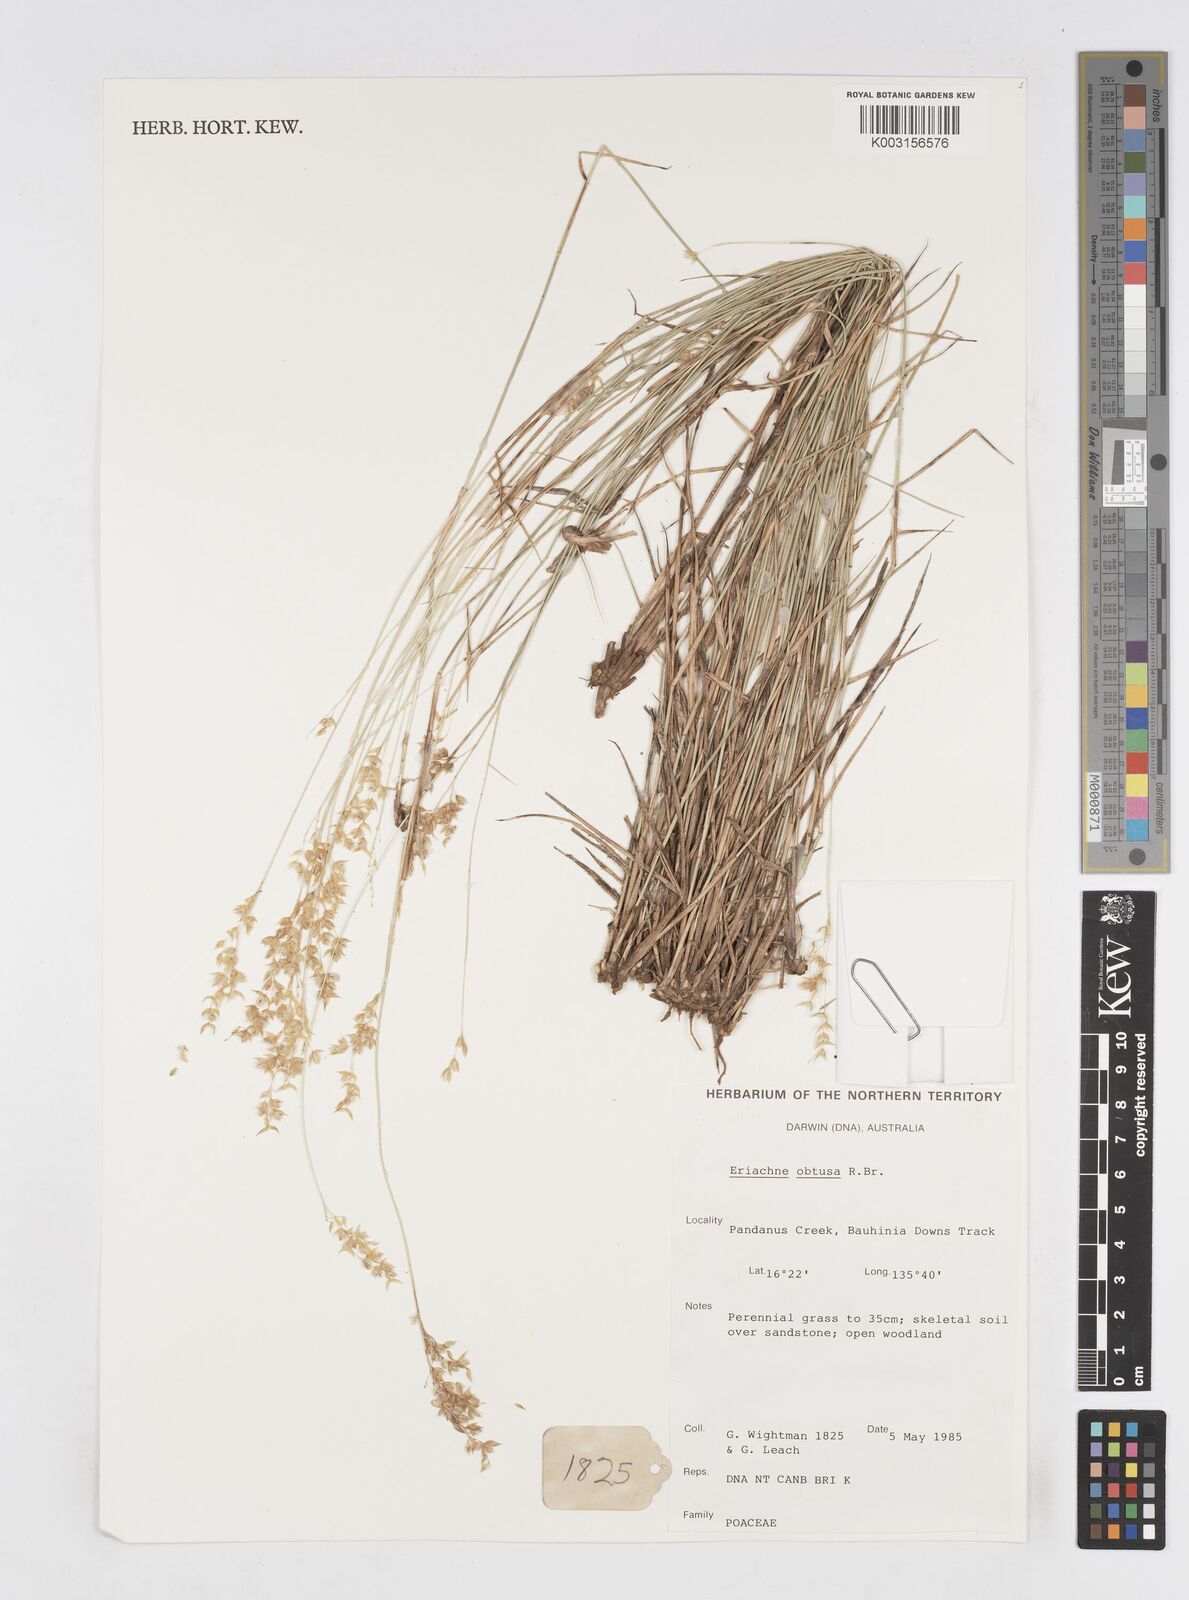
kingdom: Plantae
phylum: Tracheophyta
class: Liliopsida
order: Poales
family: Poaceae
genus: Eriachne
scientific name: Eriachne obtusa
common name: Northern wanderrie grass
